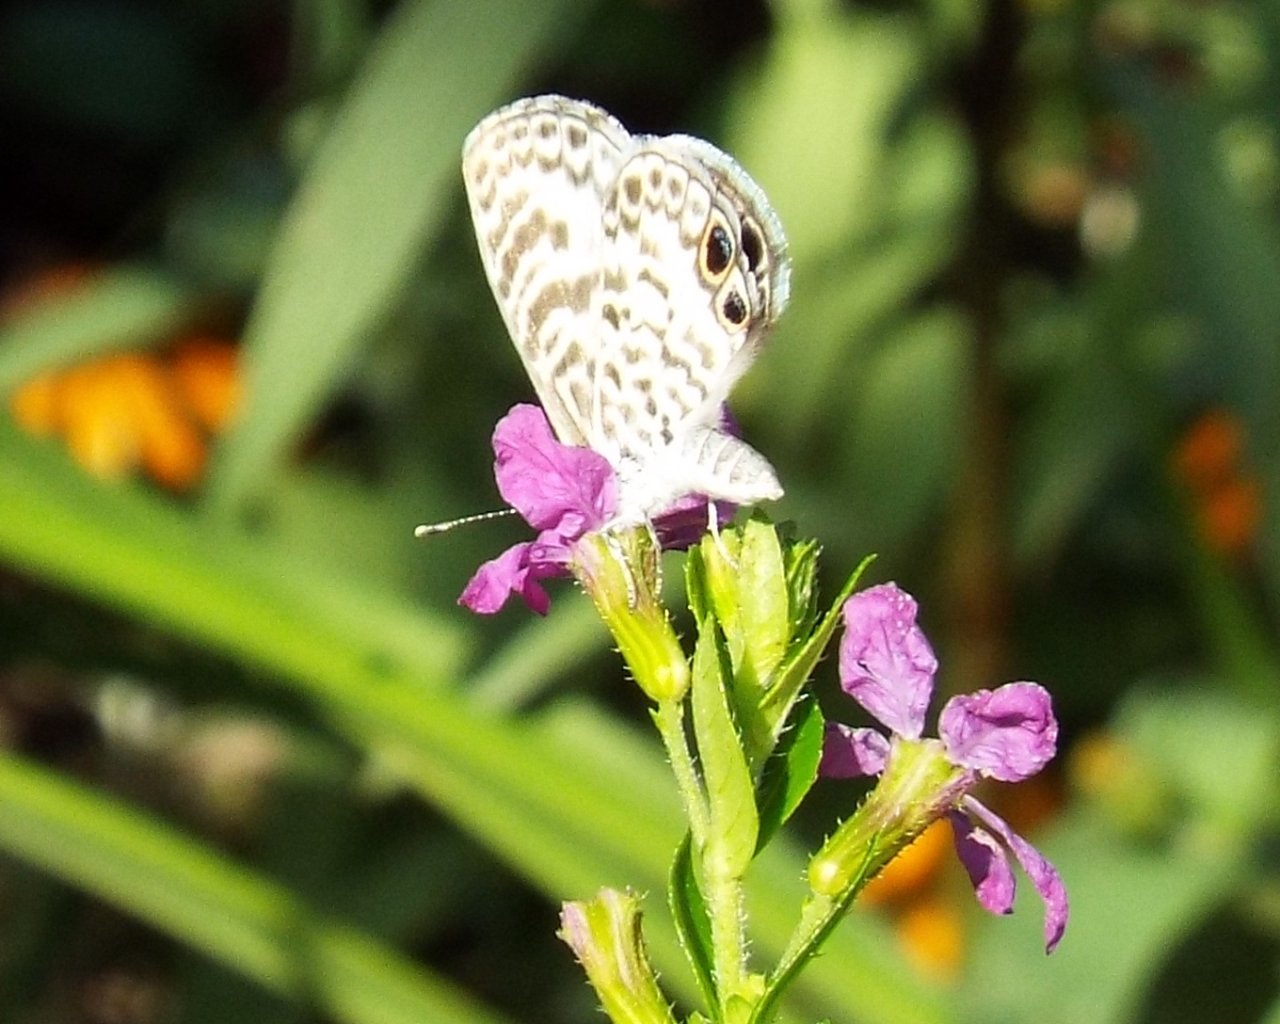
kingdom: Animalia
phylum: Arthropoda
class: Insecta
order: Lepidoptera
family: Lycaenidae
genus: Leptotes
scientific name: Leptotes cassius
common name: Cassius Blue
